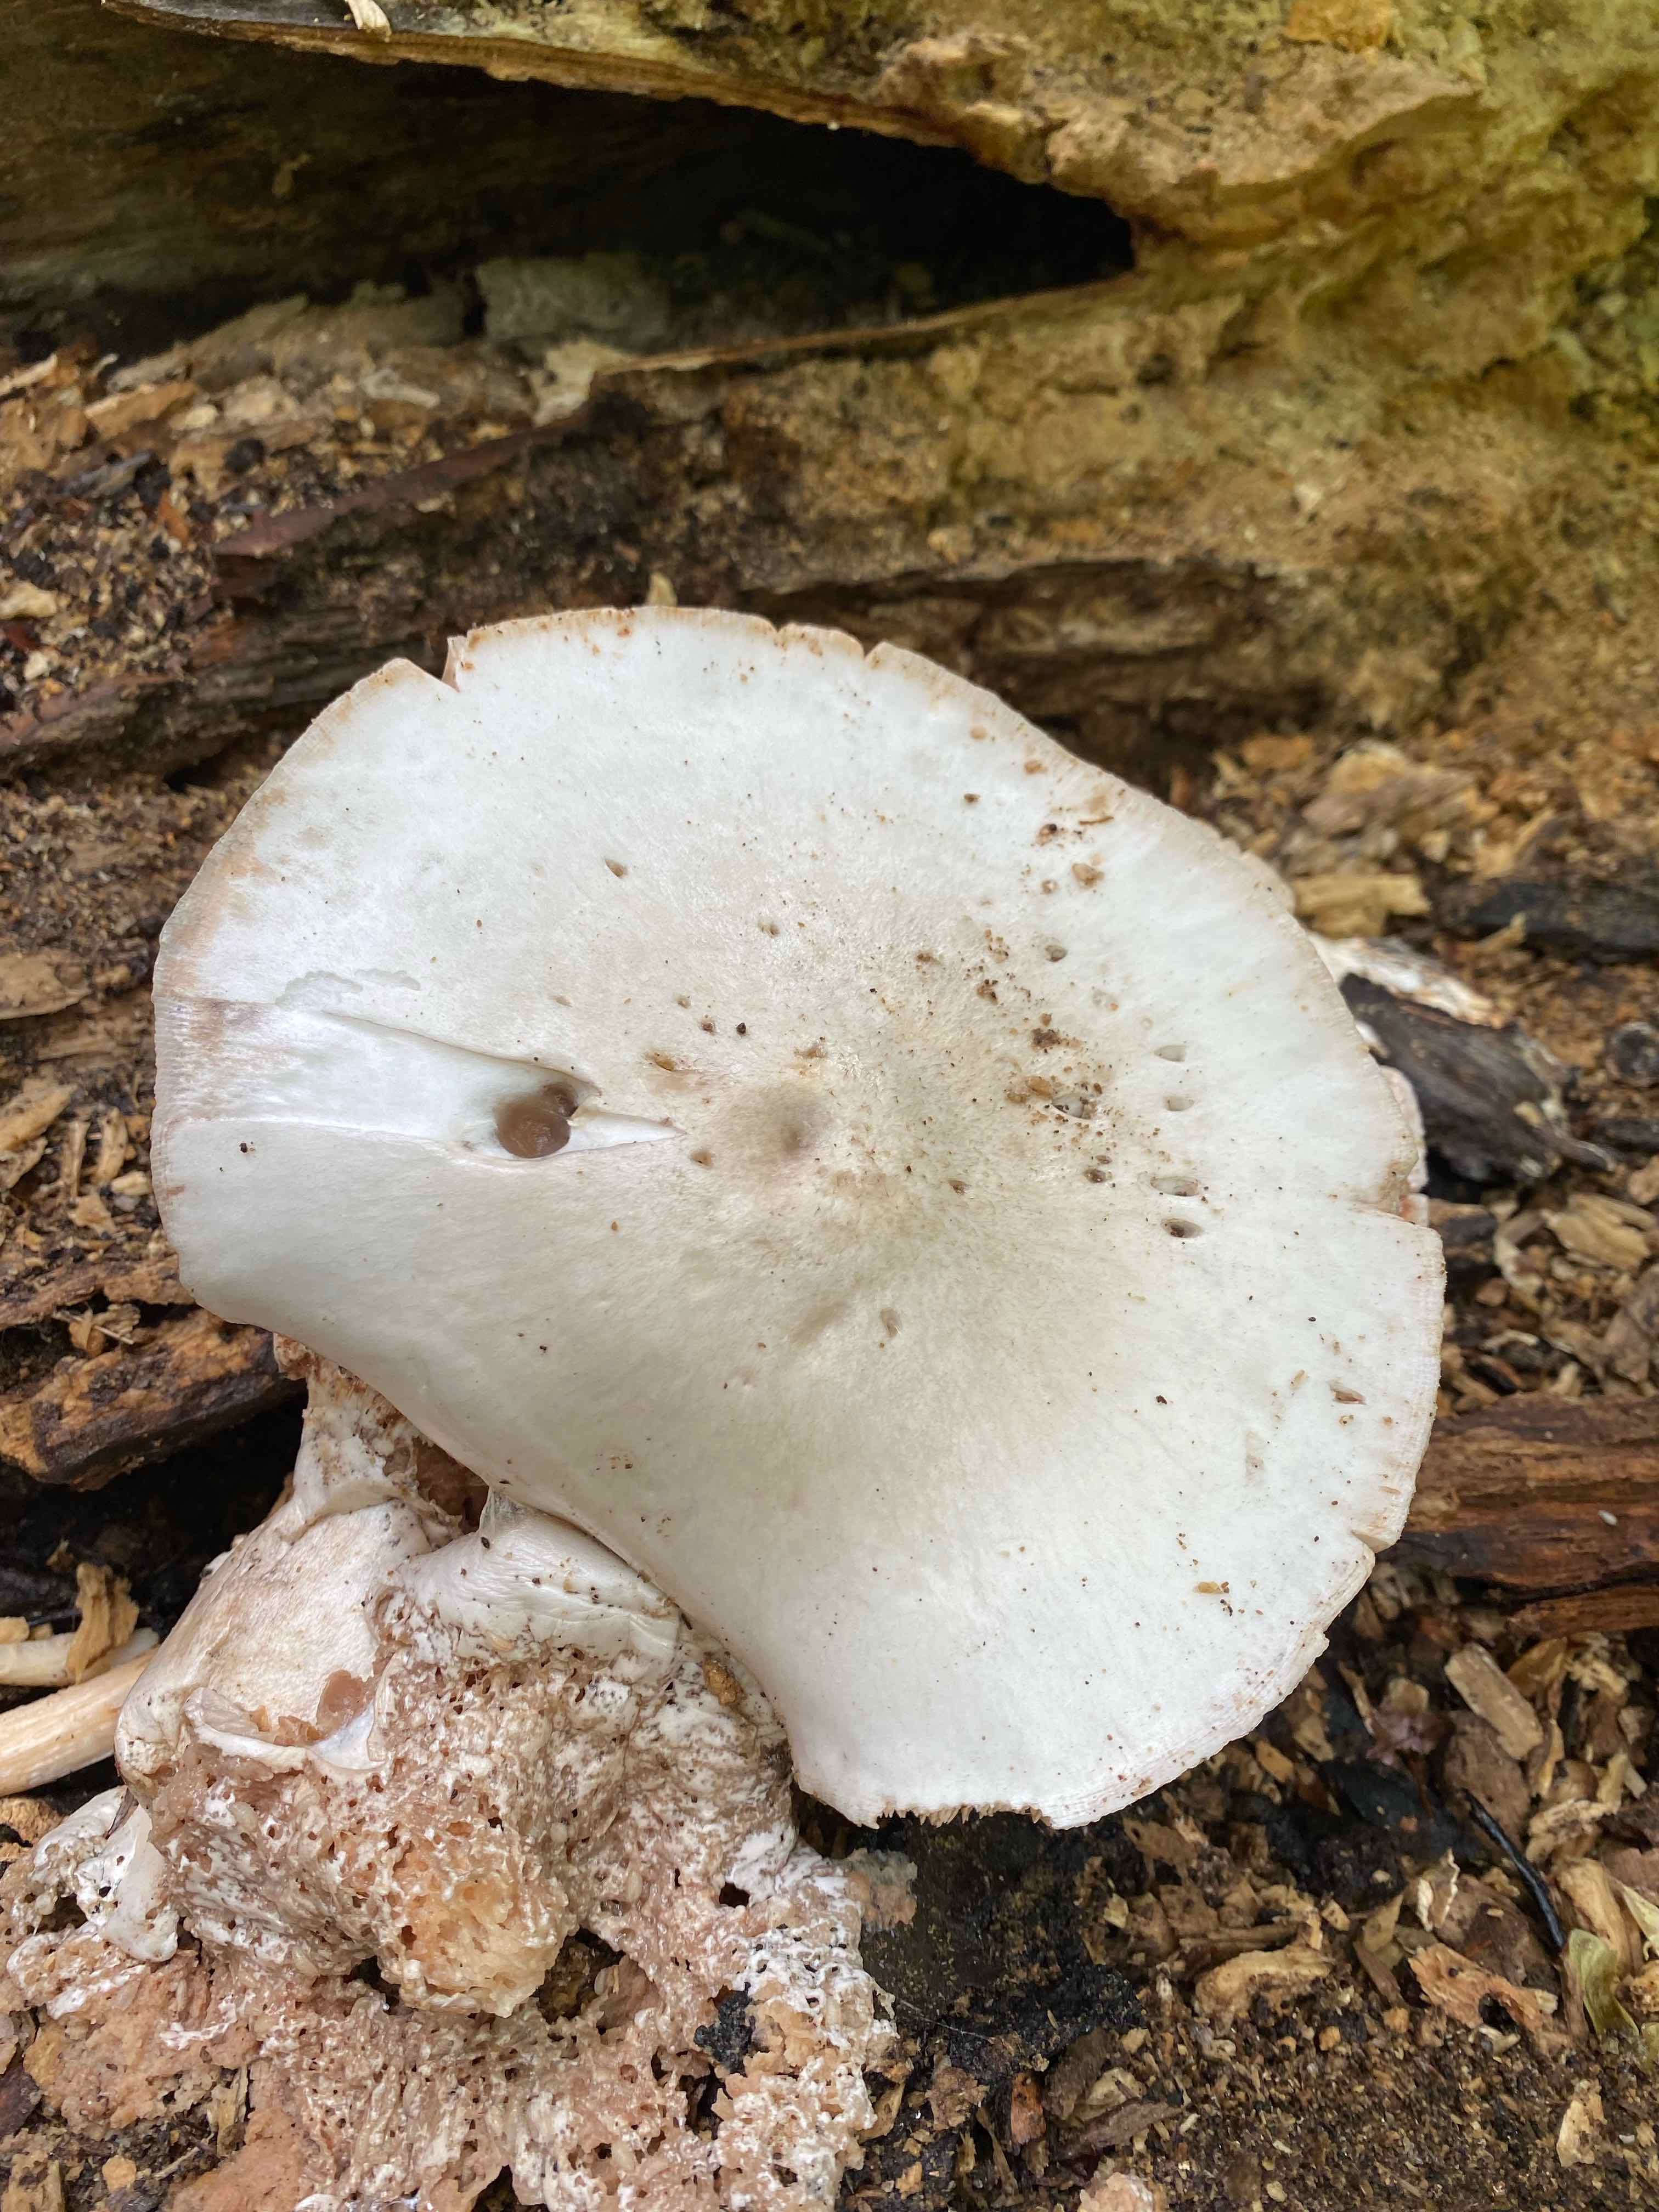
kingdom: Fungi
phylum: Basidiomycota
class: Agaricomycetes
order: Agaricales
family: Pluteaceae
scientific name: Pluteaceae
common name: skærmhatfamilien
